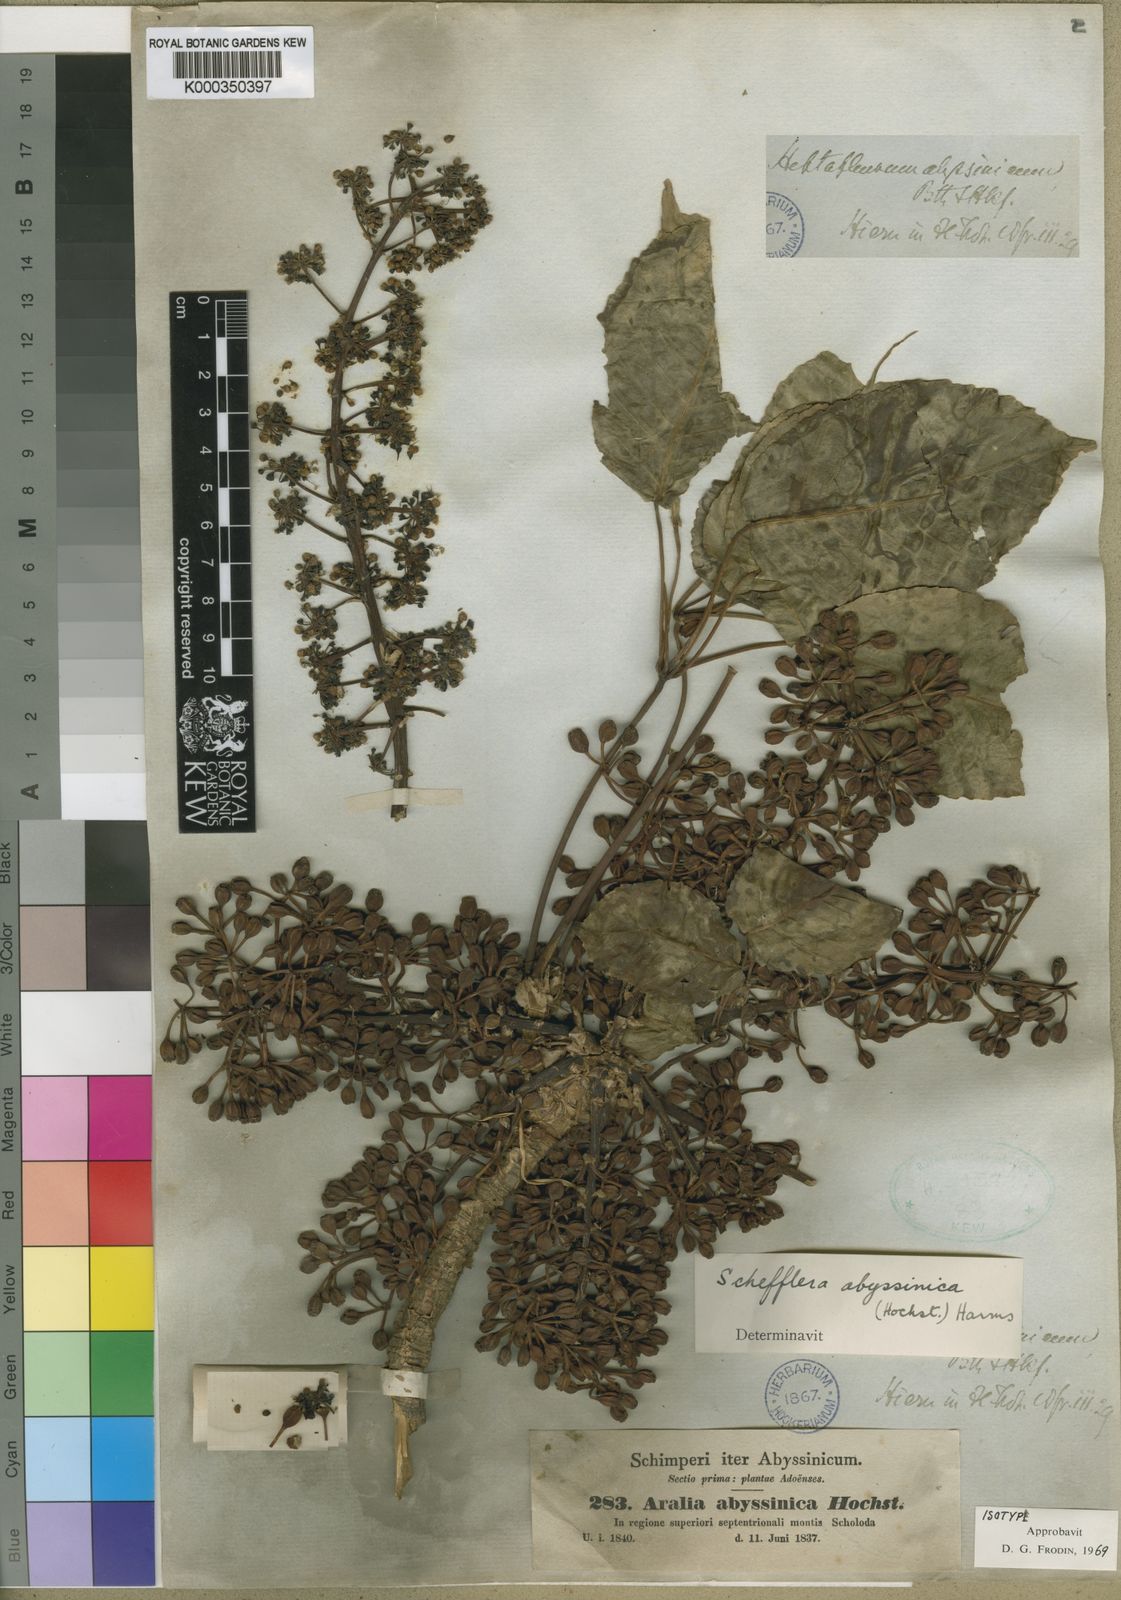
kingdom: Plantae
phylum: Tracheophyta
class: Magnoliopsida
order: Apiales
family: Araliaceae
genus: Astropanax
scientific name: Astropanax abyssinicum
